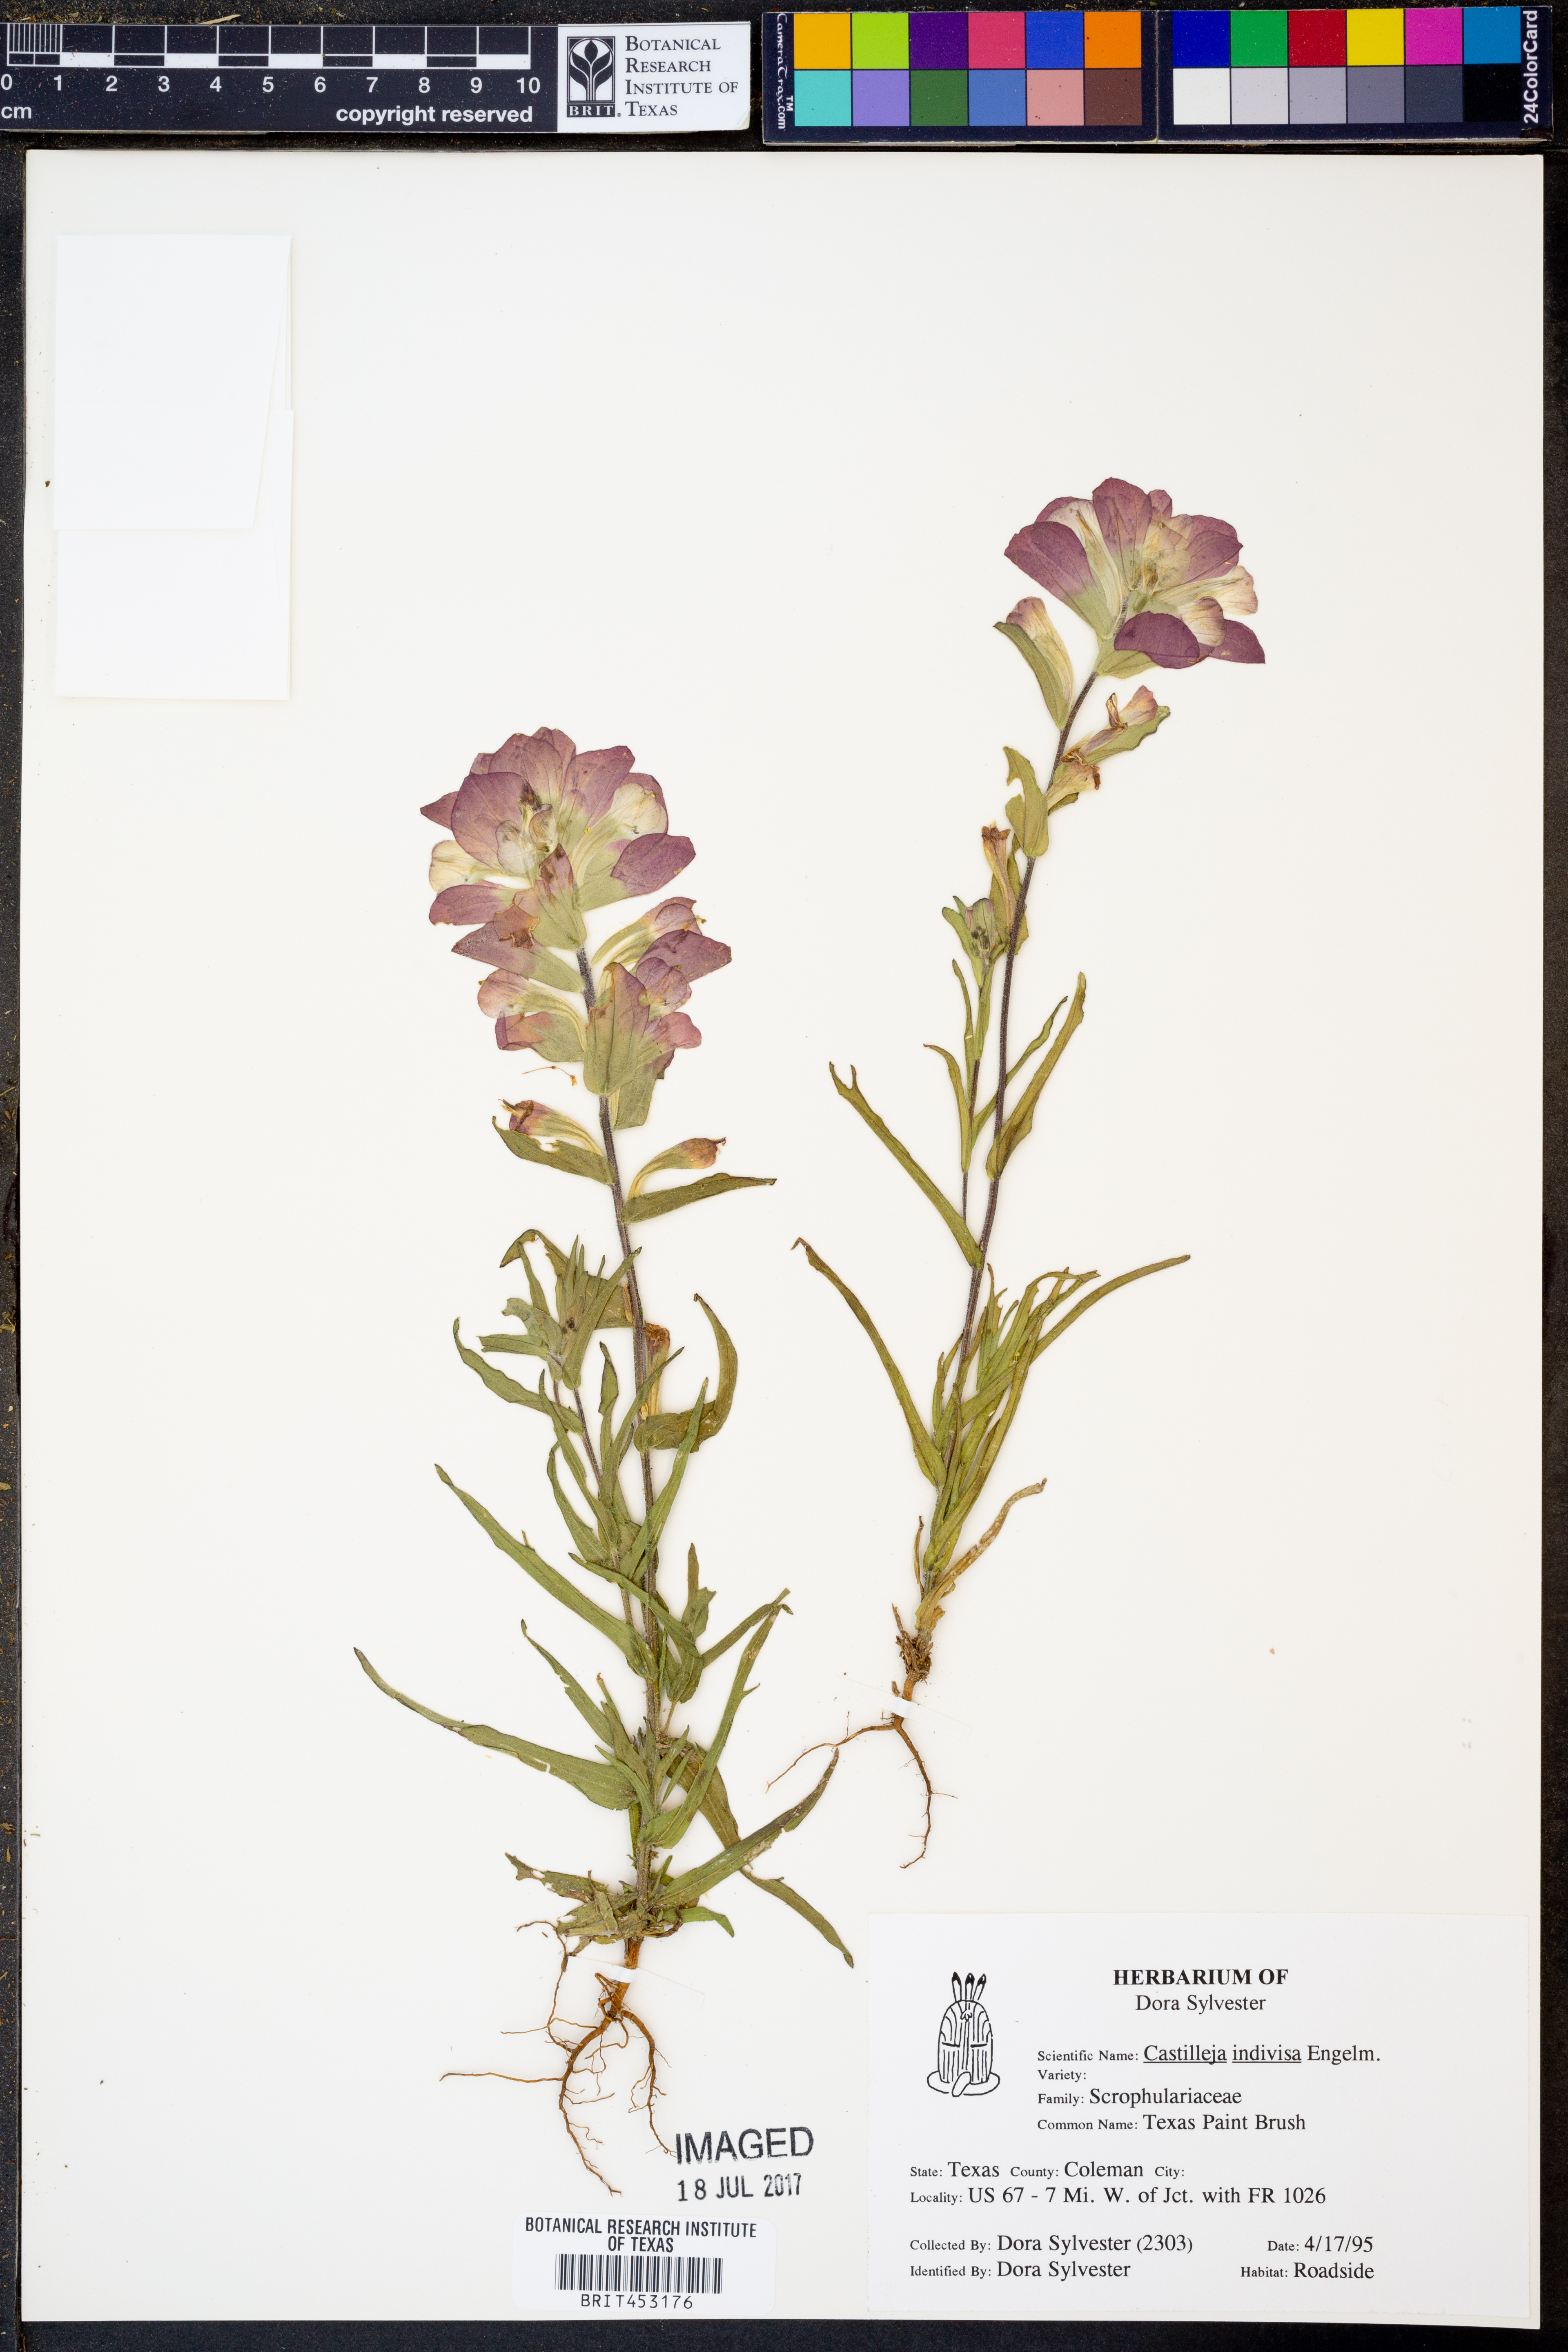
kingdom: Plantae
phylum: Tracheophyta
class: Magnoliopsida
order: Lamiales
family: Orobanchaceae
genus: Castilleja
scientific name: Castilleja indivisa
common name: Texas paintbrush
